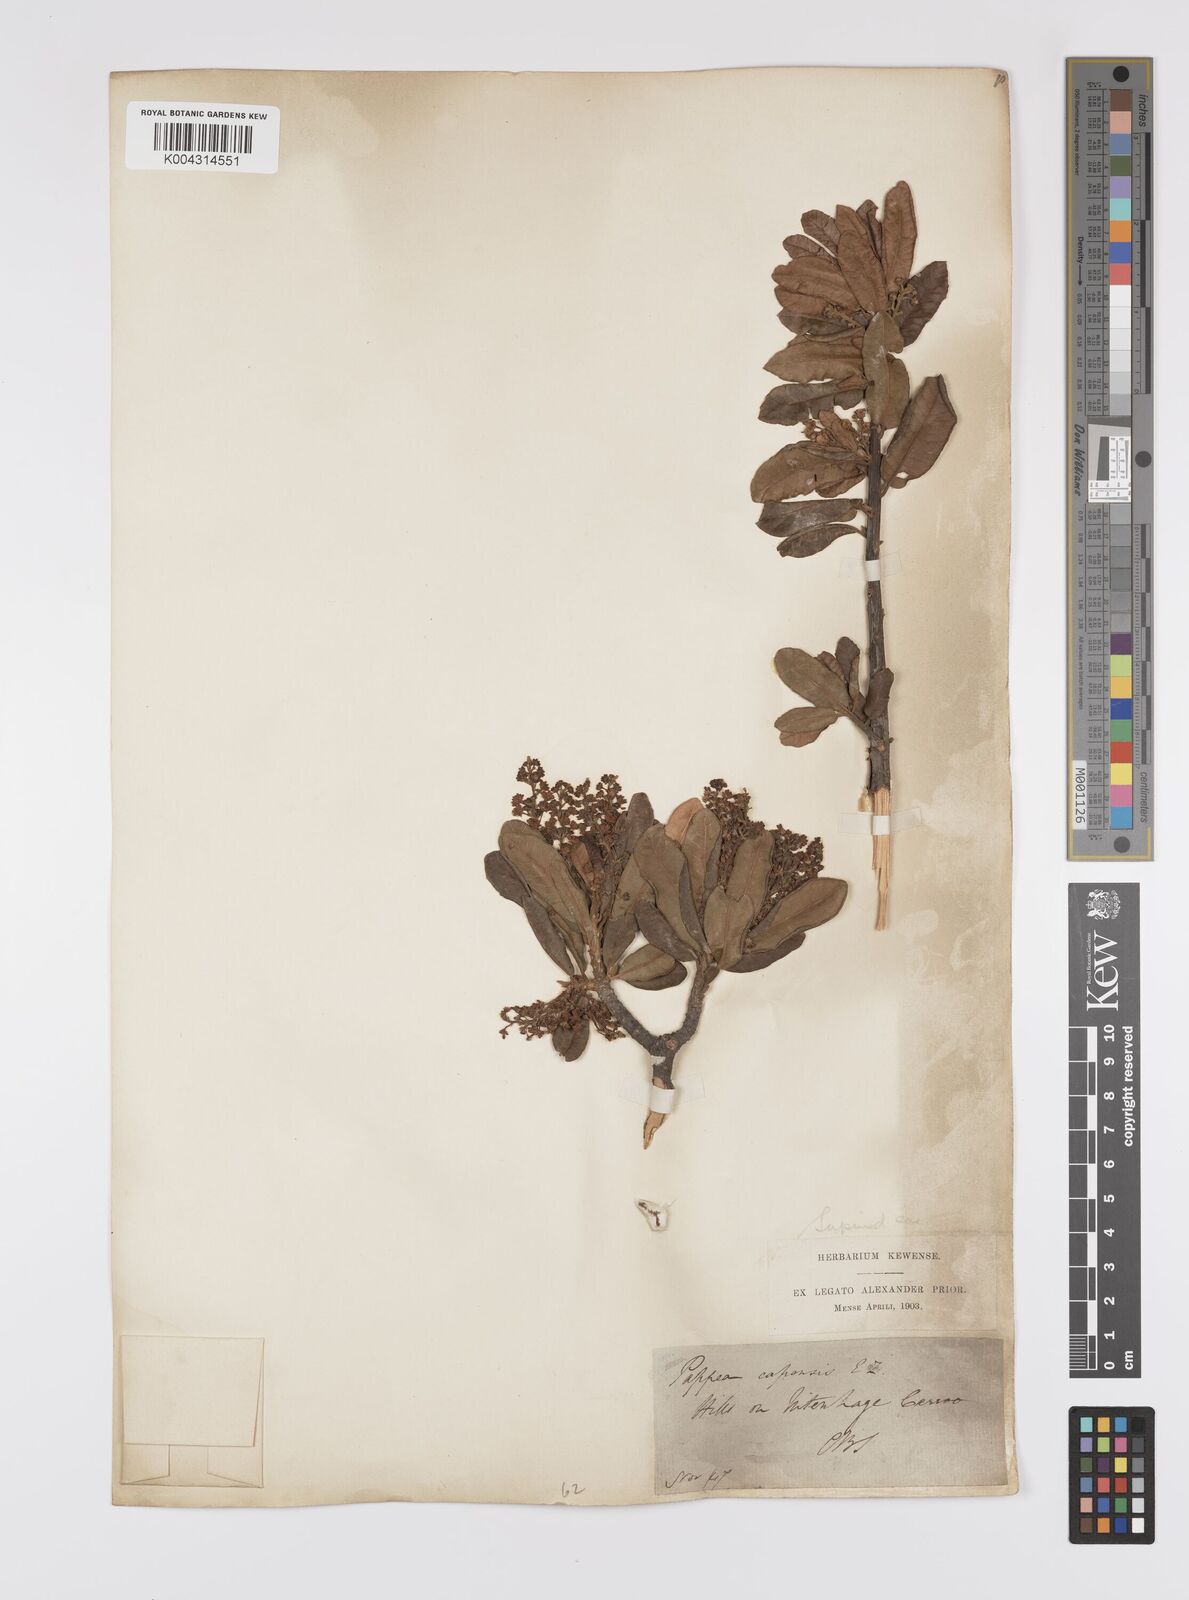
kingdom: Plantae
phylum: Tracheophyta
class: Magnoliopsida
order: Sapindales
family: Sapindaceae
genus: Pappea
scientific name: Pappea capensis
